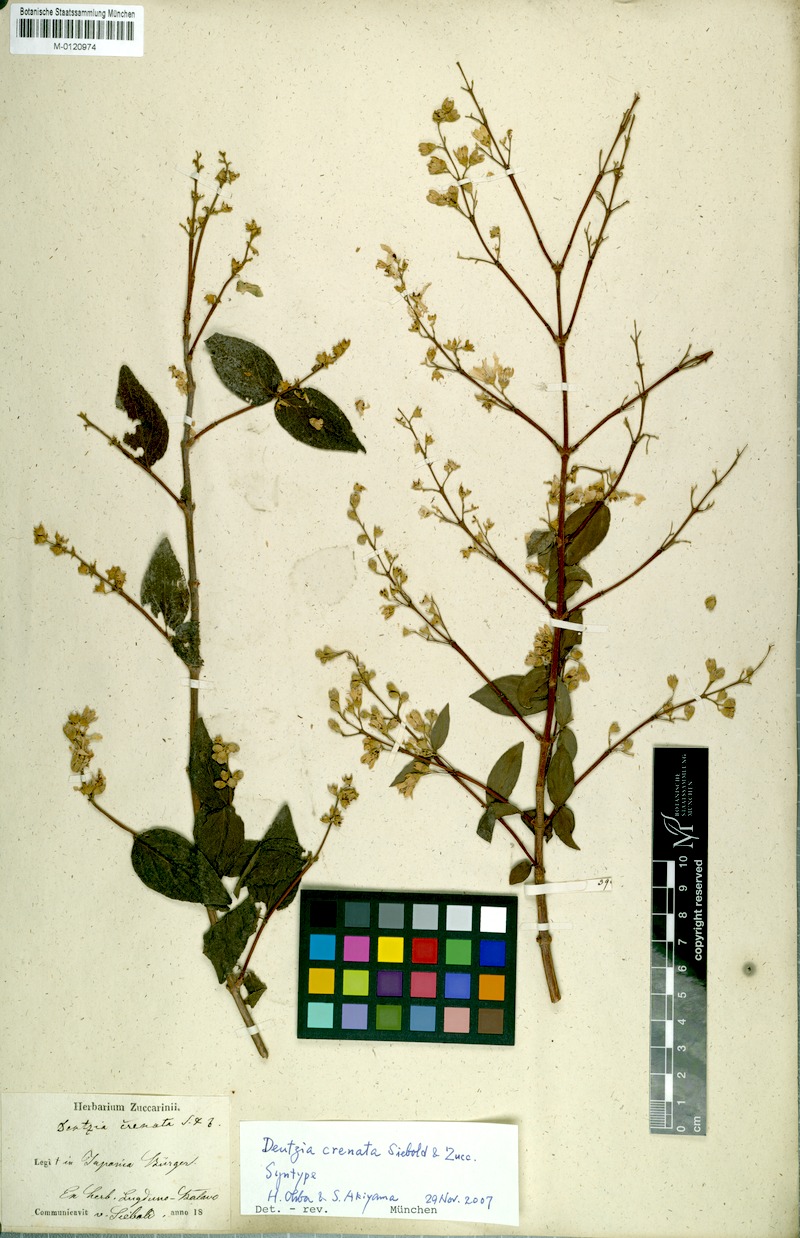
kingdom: Plantae
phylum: Tracheophyta
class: Magnoliopsida
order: Cornales
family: Hydrangeaceae
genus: Deutzia
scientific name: Deutzia crenata
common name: Deutzia
